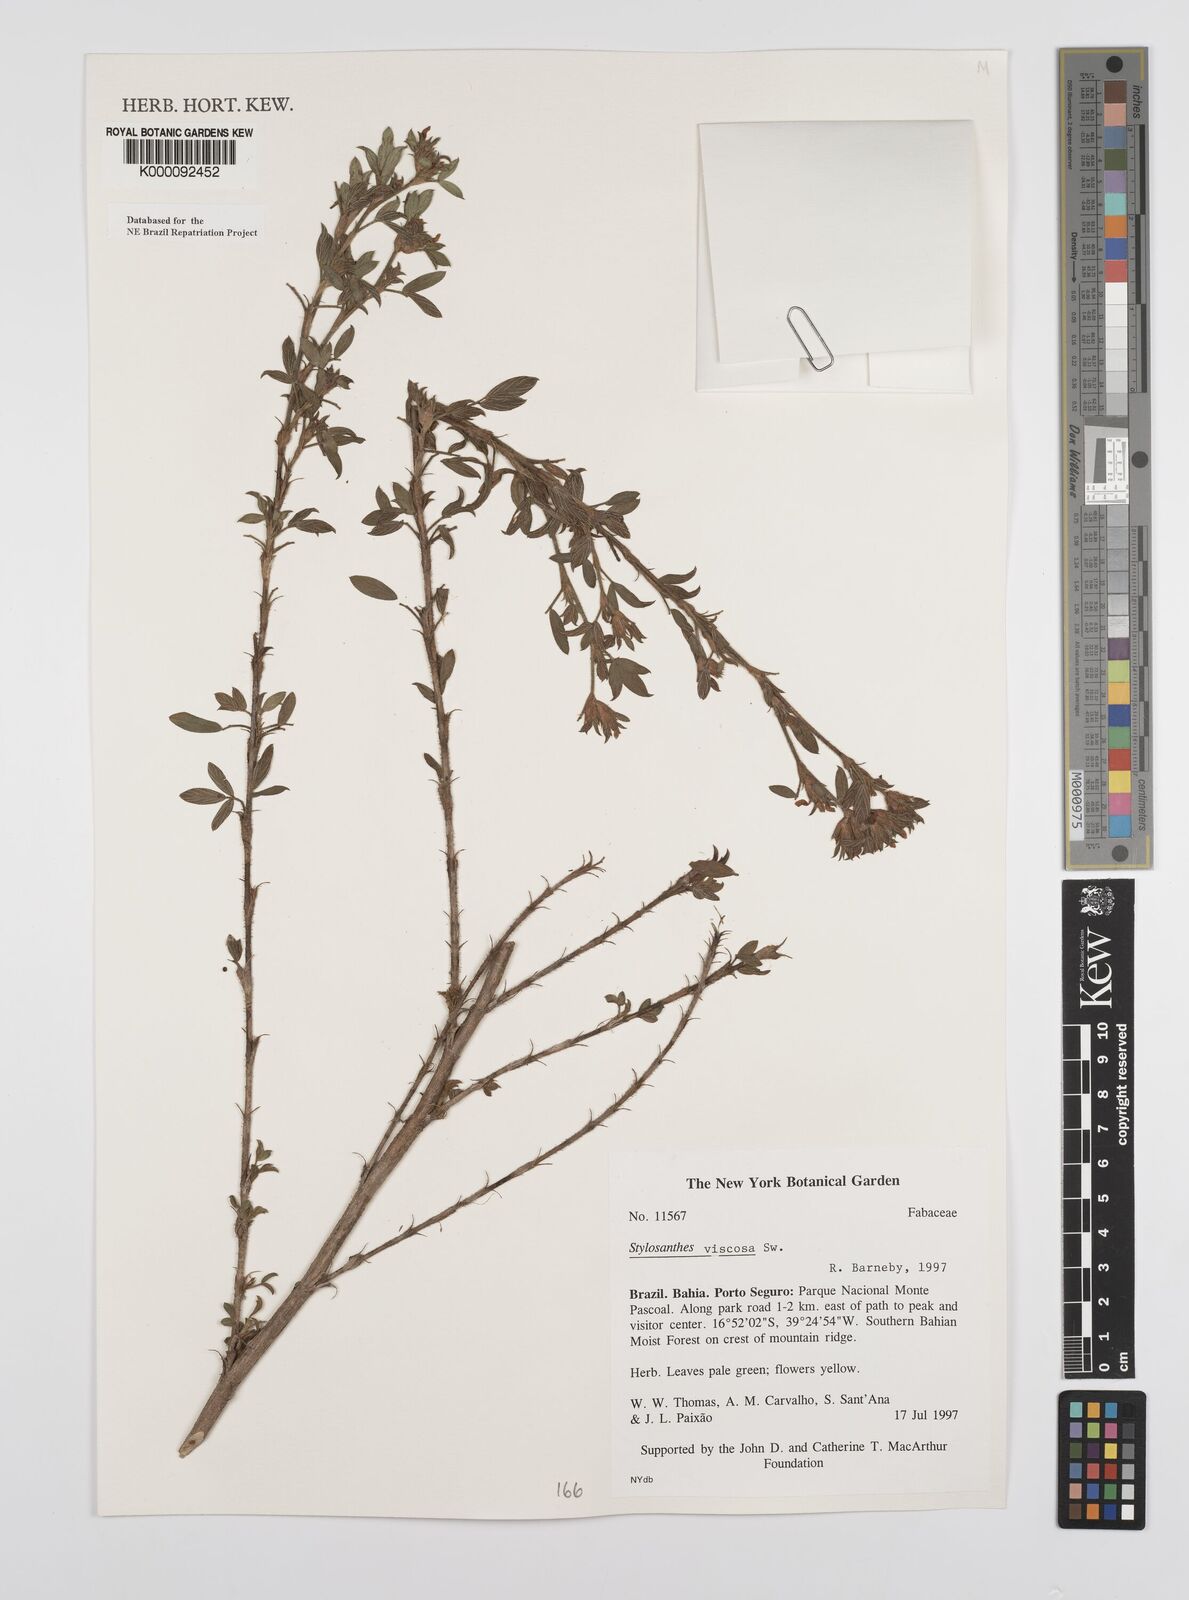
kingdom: Plantae
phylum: Tracheophyta
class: Magnoliopsida
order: Fabales
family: Fabaceae
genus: Stylosanthes
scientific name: Stylosanthes viscosa
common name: Viscid pencil-flower
